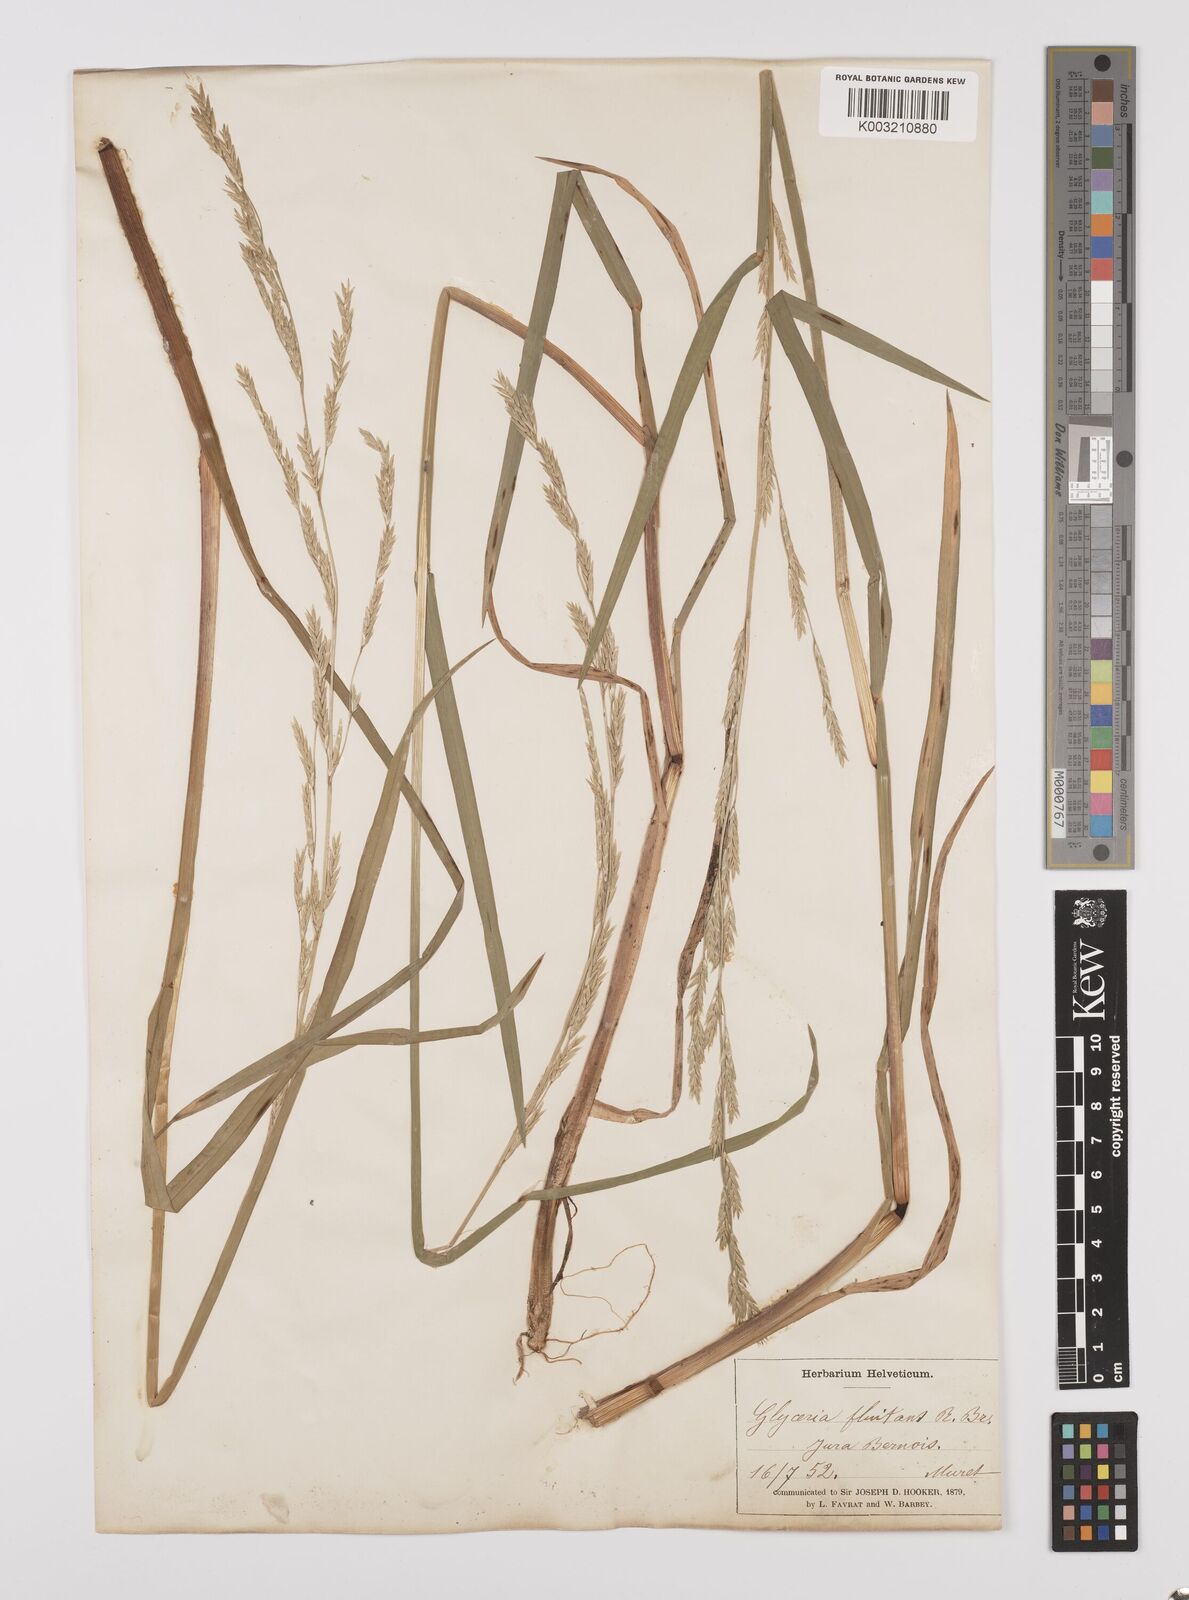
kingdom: Plantae
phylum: Tracheophyta
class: Liliopsida
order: Poales
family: Poaceae
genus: Glyceria
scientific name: Glyceria fluitans
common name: Floating sweet-grass
